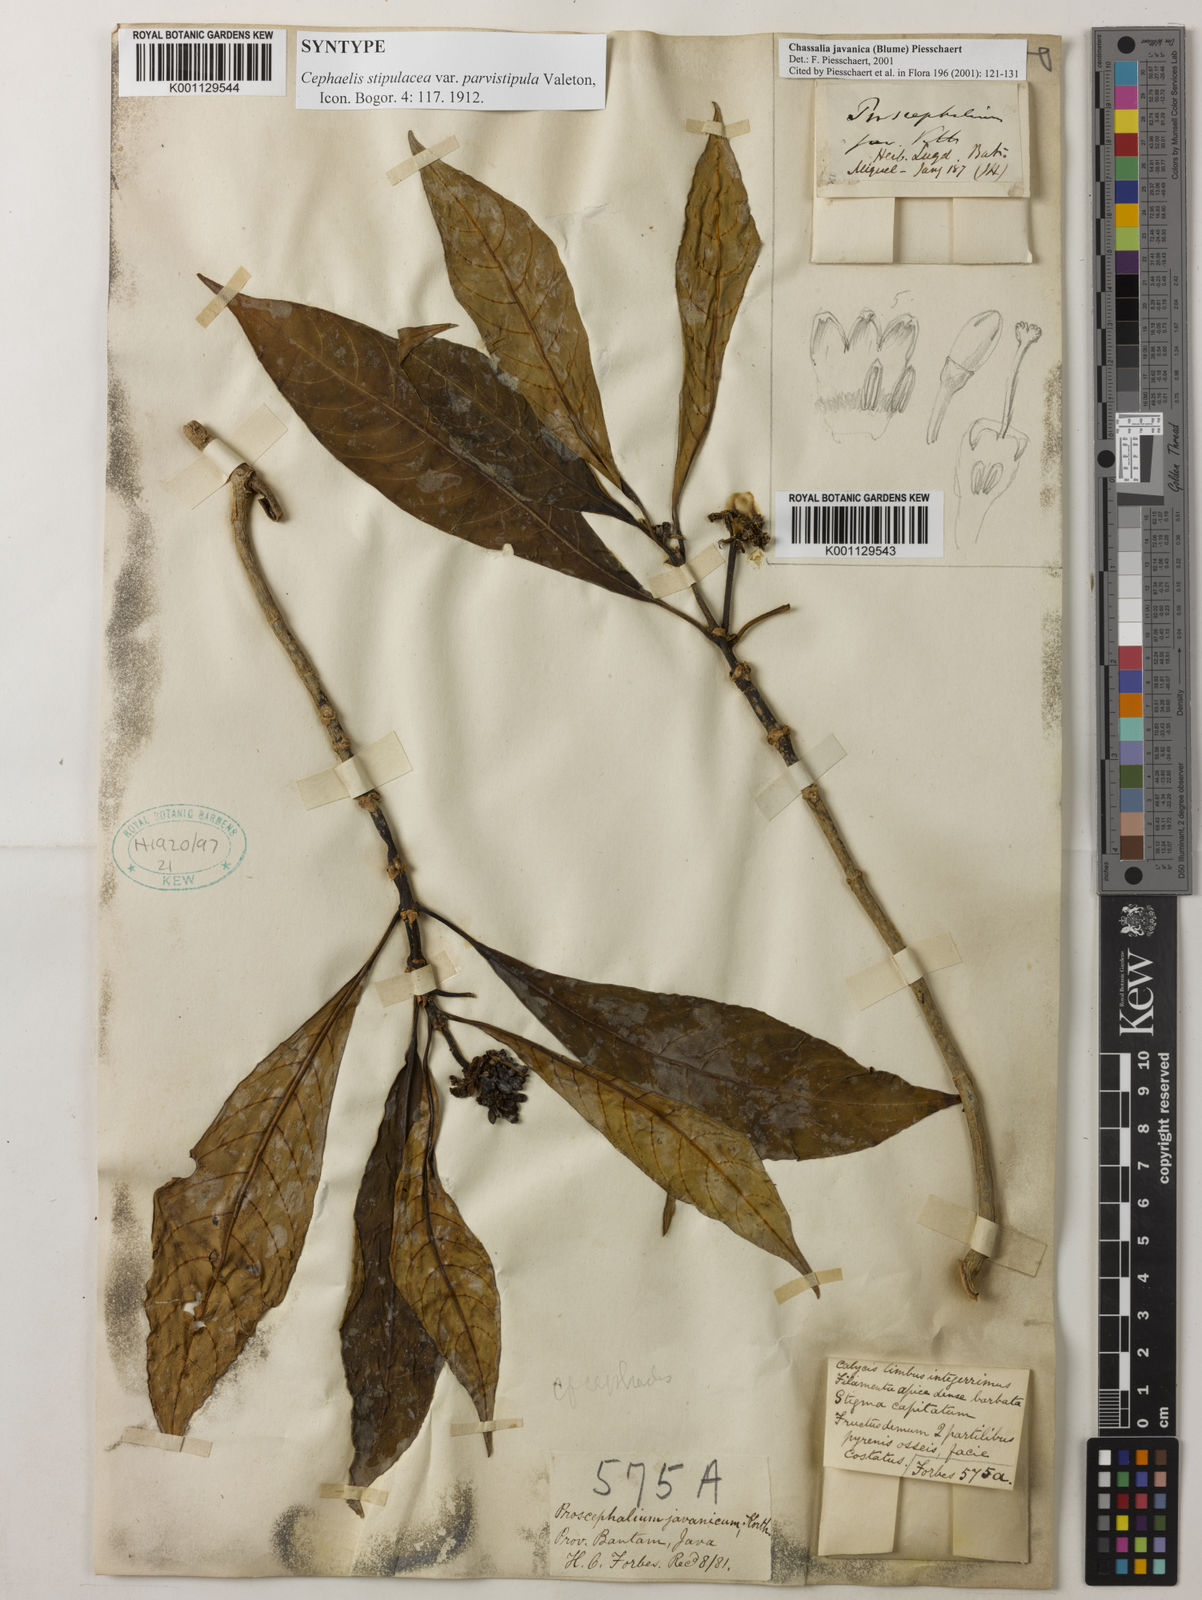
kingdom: Plantae
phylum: Tracheophyta
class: Magnoliopsida
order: Gentianales
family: Rubiaceae
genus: Chassalia
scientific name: Chassalia javanica
